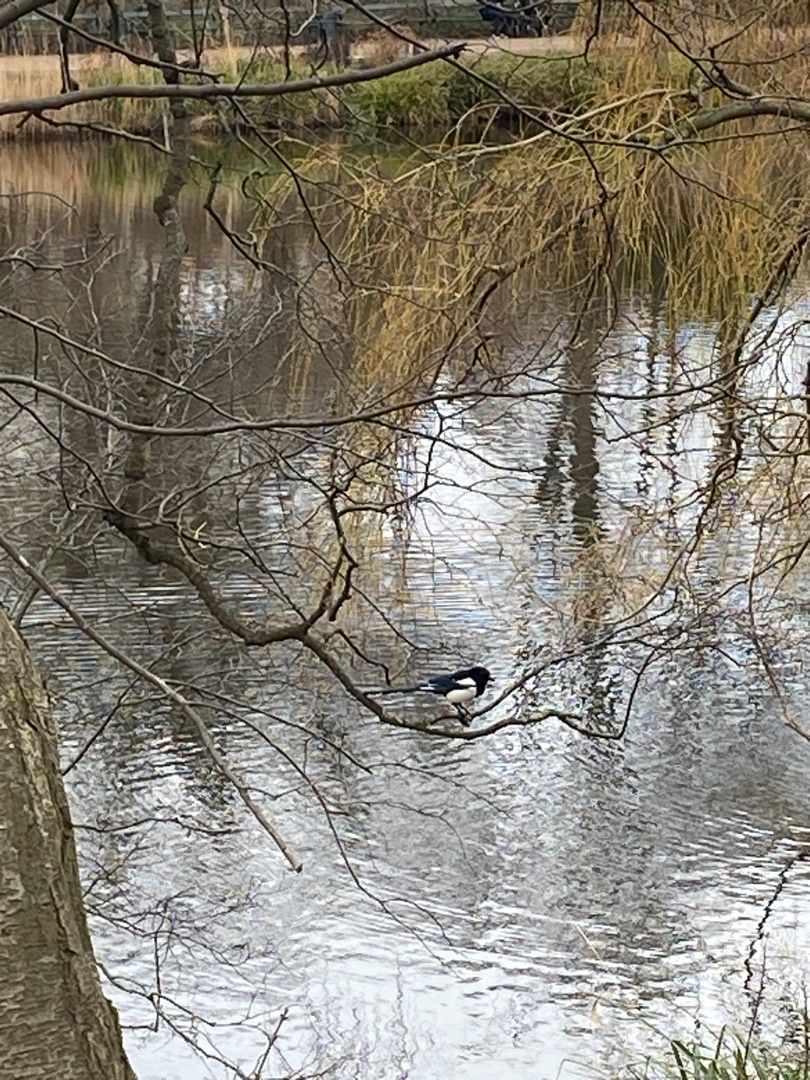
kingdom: Animalia
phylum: Chordata
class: Aves
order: Passeriformes
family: Corvidae
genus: Pica
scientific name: Pica pica
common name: Husskade
